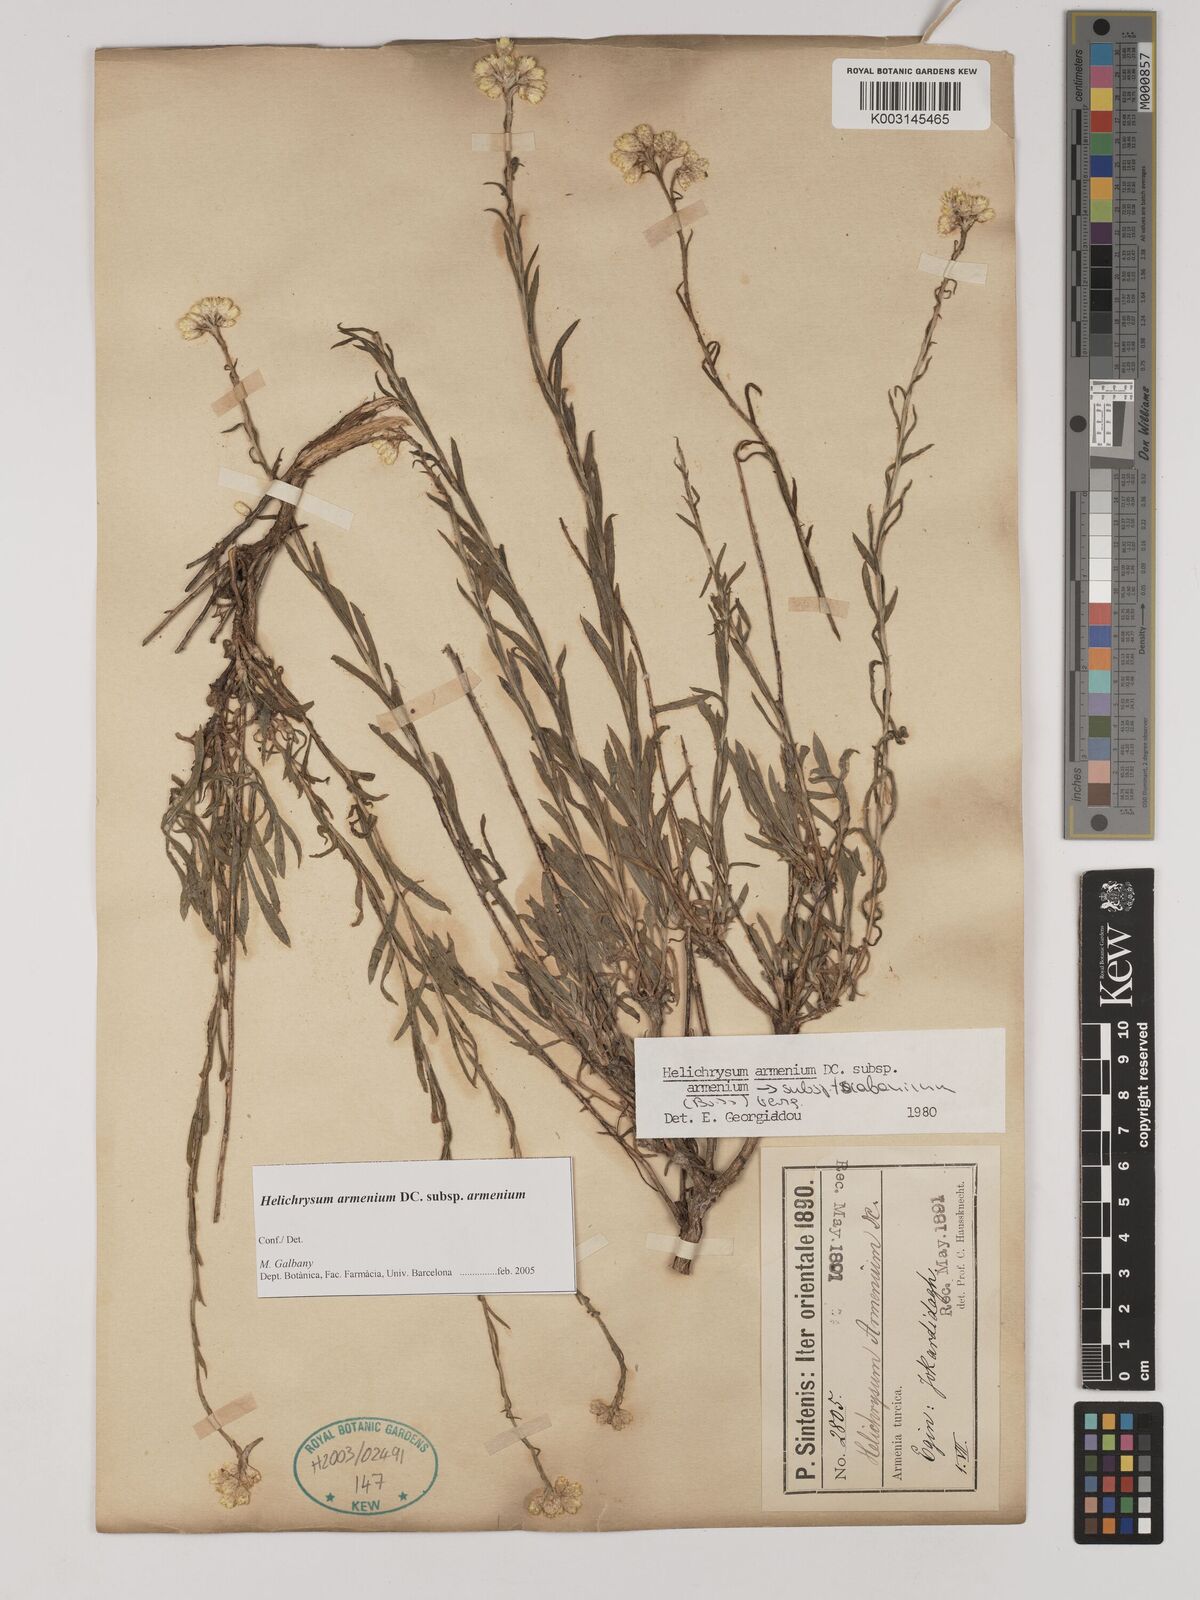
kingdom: Plantae
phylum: Tracheophyta
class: Magnoliopsida
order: Asterales
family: Asteraceae
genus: Helichrysum
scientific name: Helichrysum armenium
